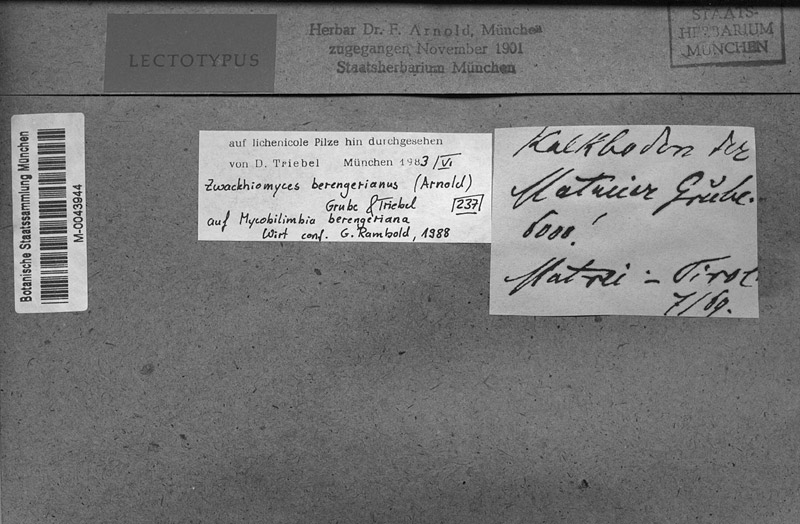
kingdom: Fungi
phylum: Ascomycota
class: Lecanoromycetes
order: Lecideales
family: Lecideaceae
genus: Lecidea
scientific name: Lecidea berengeriana
